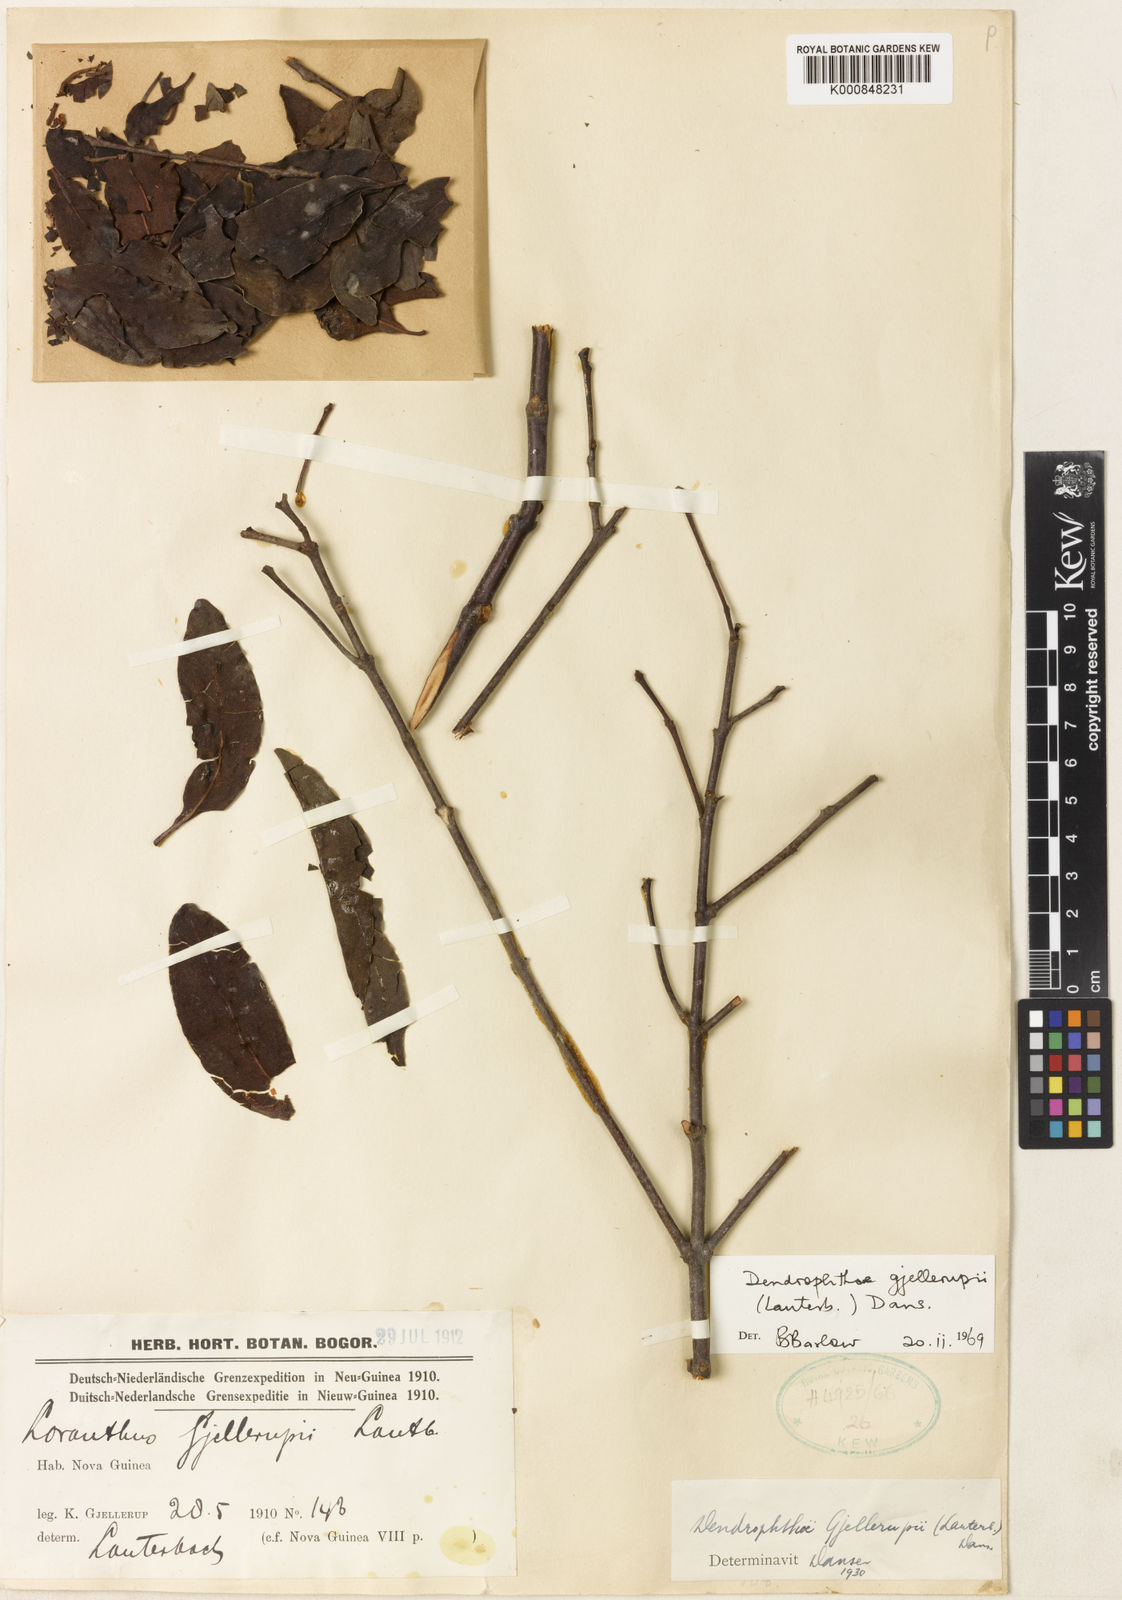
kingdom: Plantae
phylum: Tracheophyta
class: Magnoliopsida
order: Santalales
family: Loranthaceae
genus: Dendrophthoe
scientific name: Dendrophthoe gjellerupii
